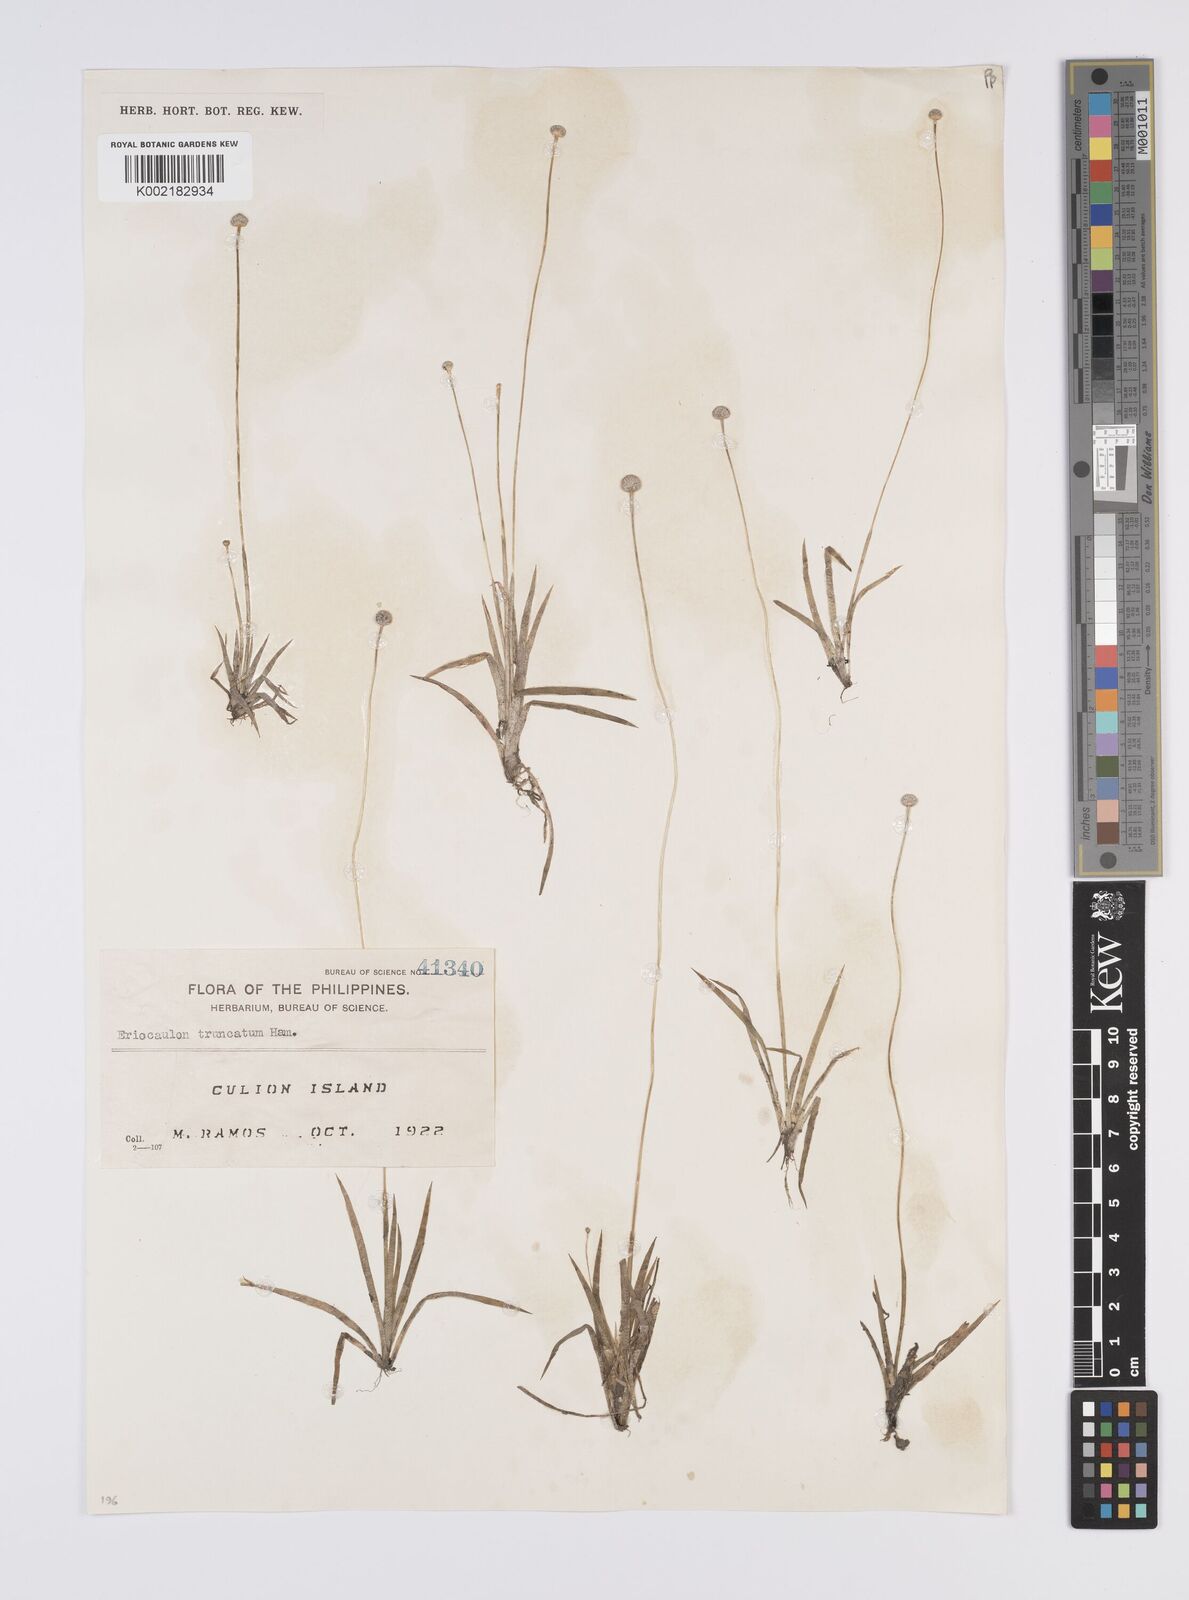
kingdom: Plantae
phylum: Tracheophyta
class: Liliopsida
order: Poales
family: Eriocaulaceae
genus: Eriocaulon
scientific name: Eriocaulon pseudotruncatum
